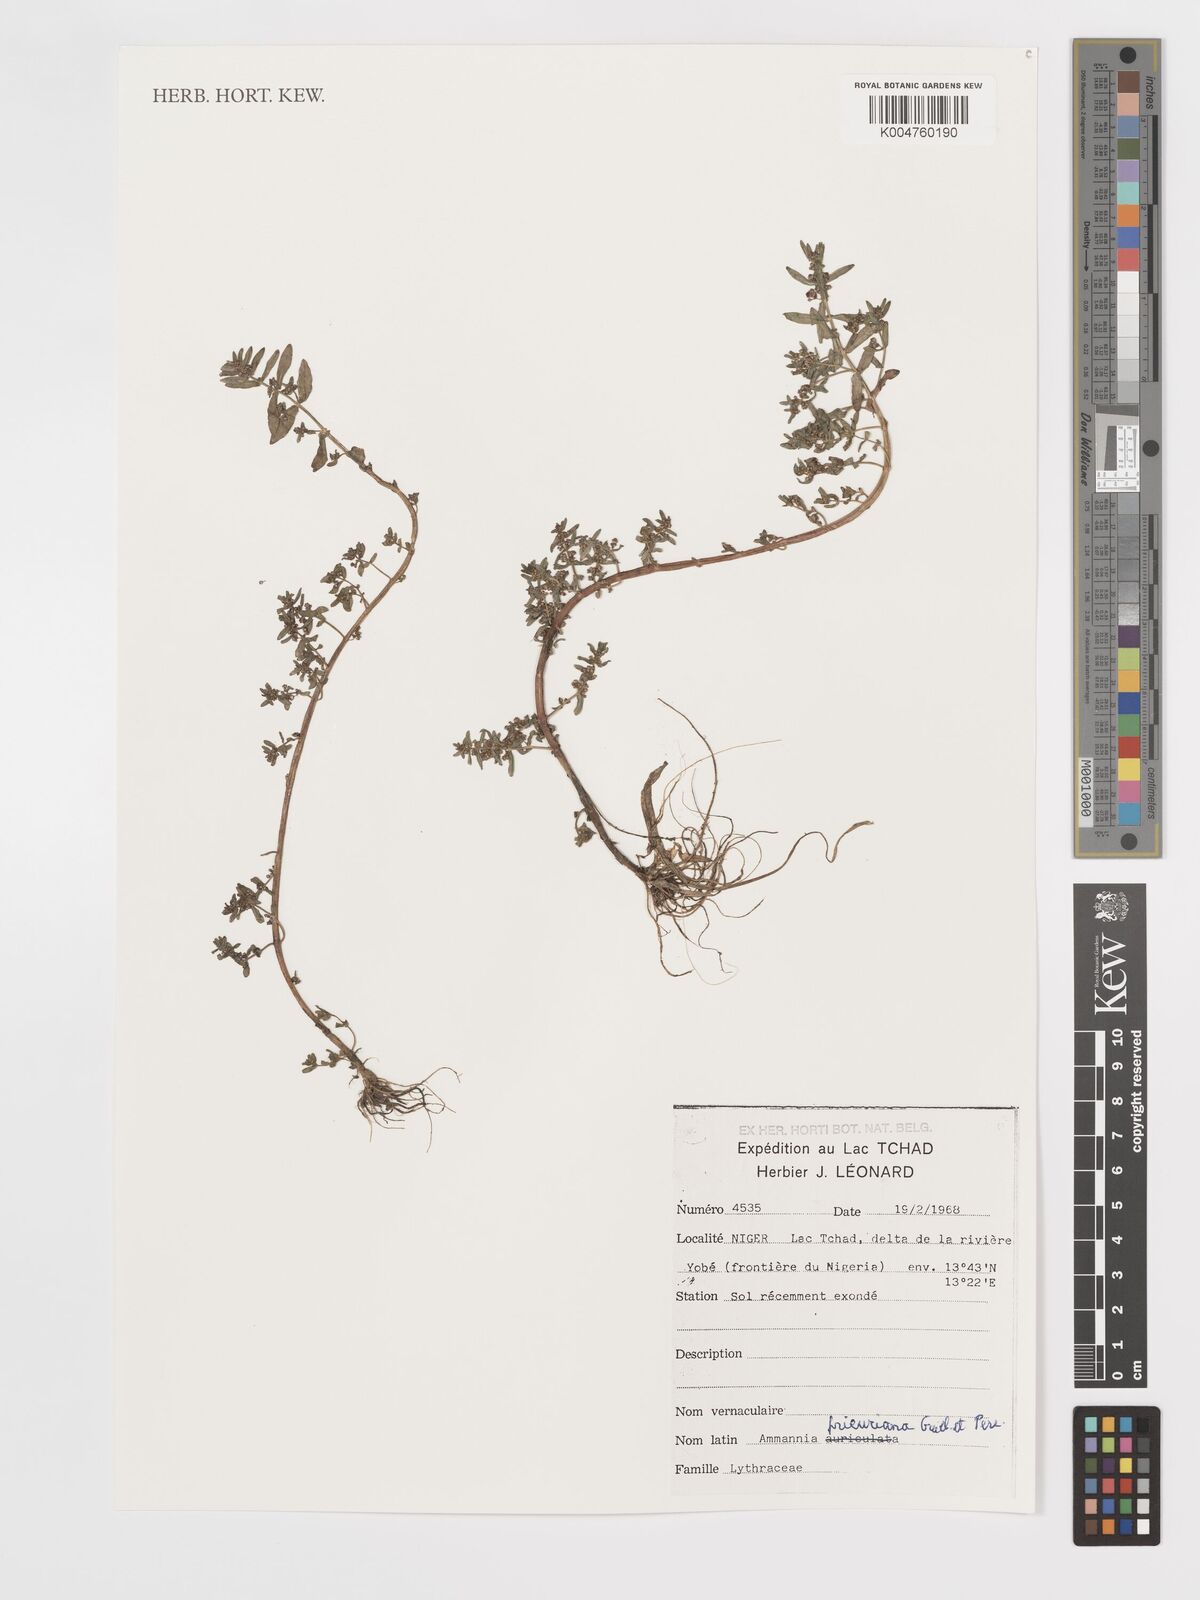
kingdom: Plantae
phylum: Tracheophyta
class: Magnoliopsida
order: Myrtales
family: Lythraceae
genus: Ammannia
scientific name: Ammannia prieuriana
